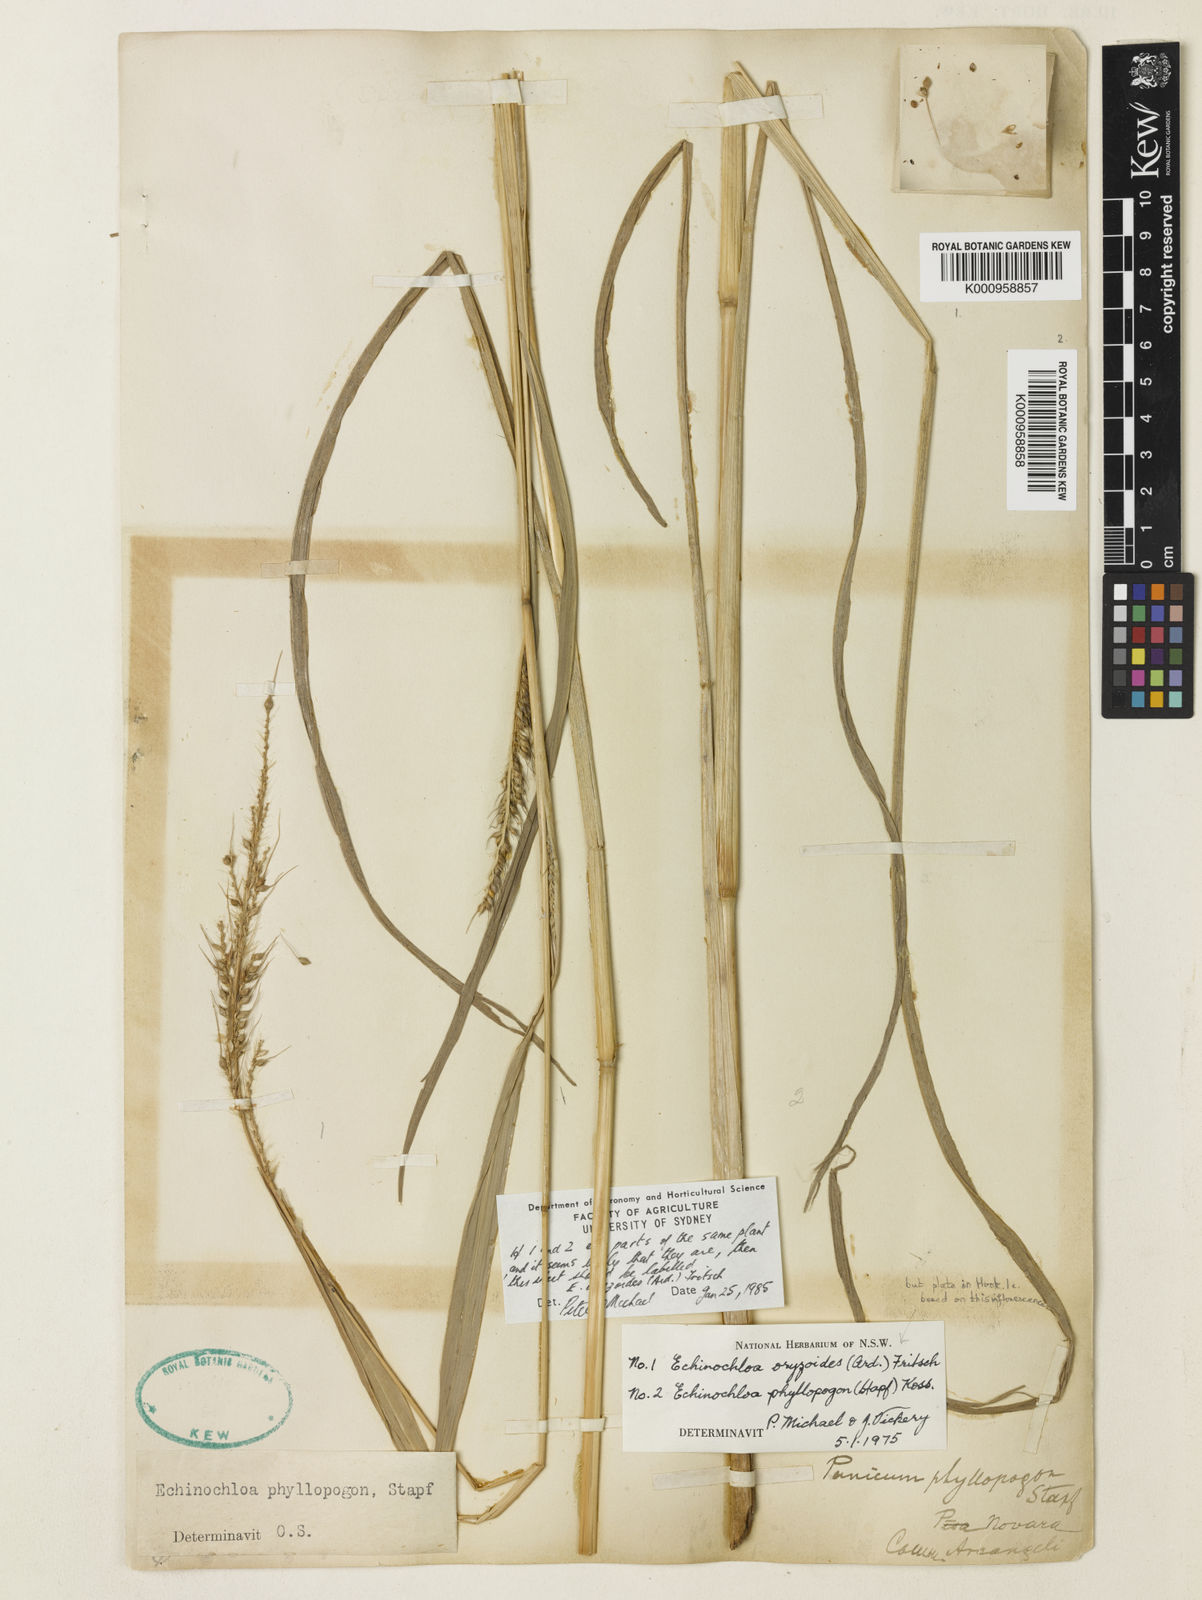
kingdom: Plantae
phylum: Tracheophyta
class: Liliopsida
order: Poales
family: Poaceae
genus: Echinochloa
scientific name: Echinochloa oryzoides
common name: Early water grass
